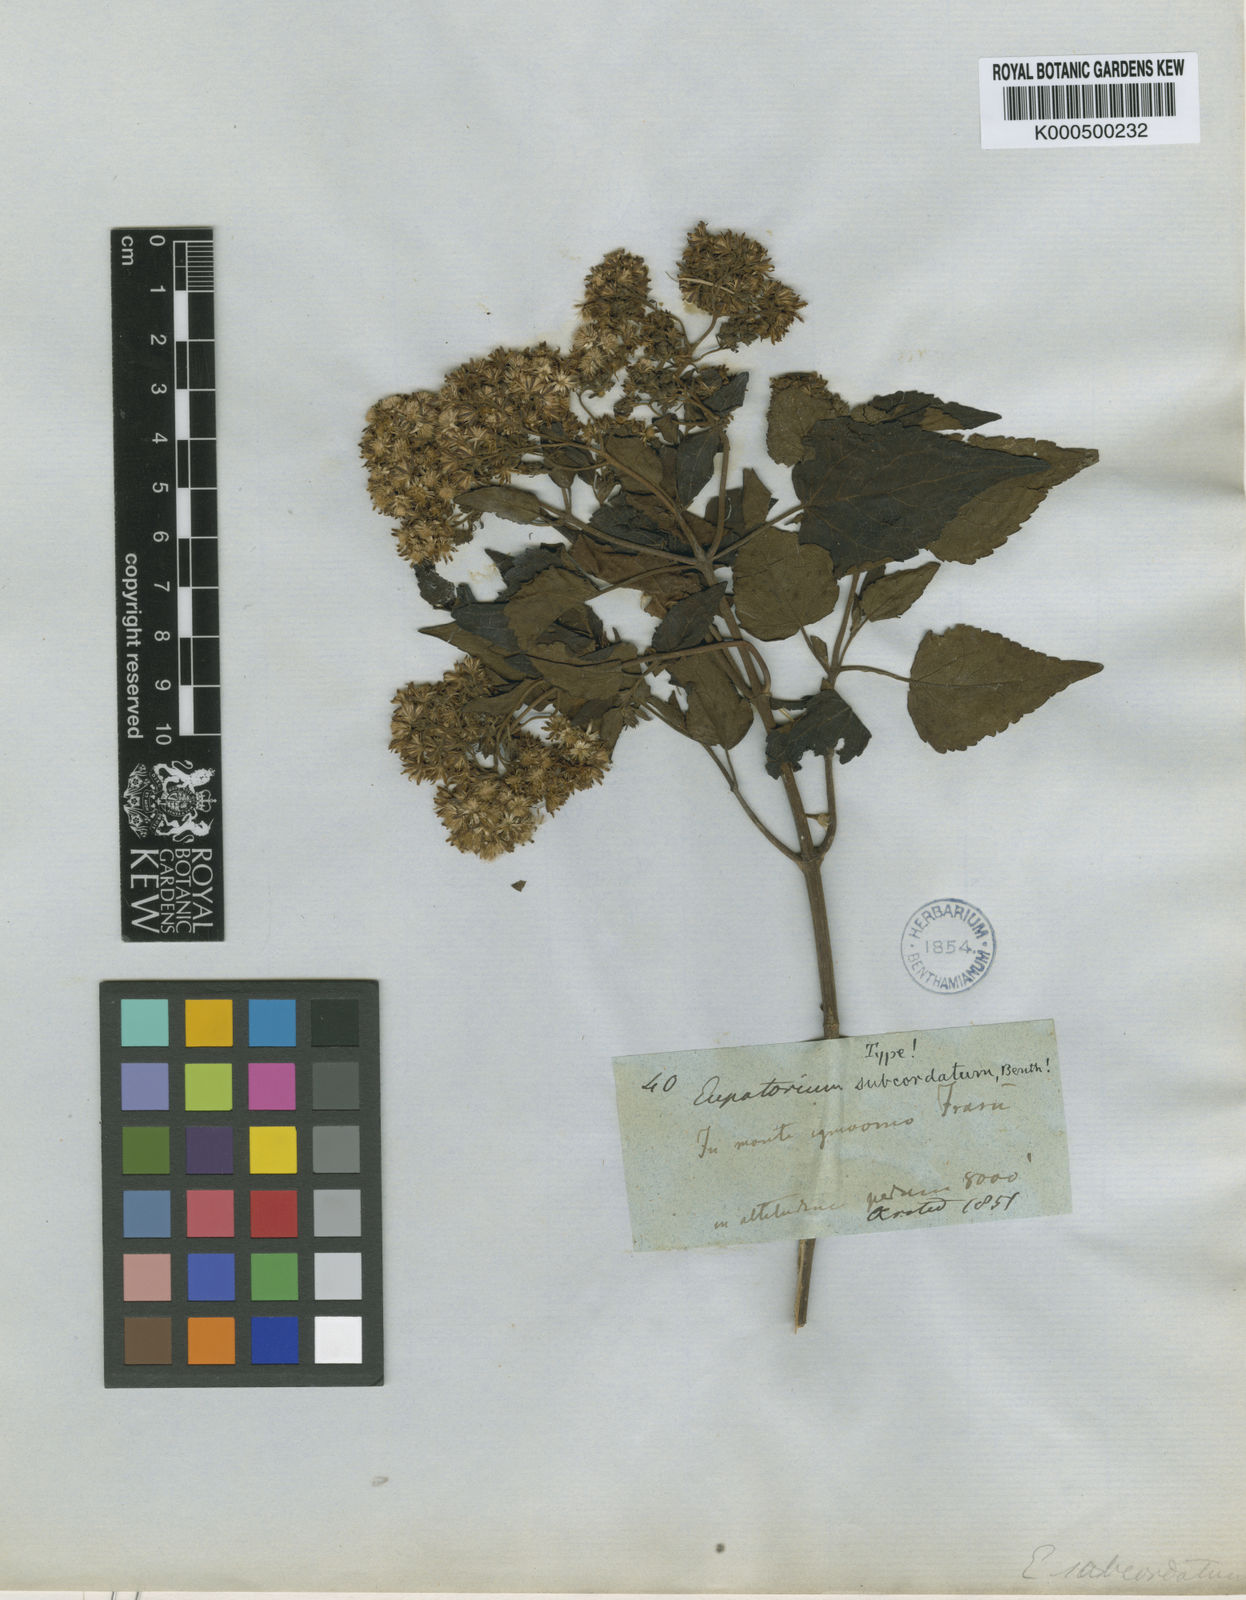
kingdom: Plantae
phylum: Tracheophyta
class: Magnoliopsida
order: Asterales
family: Asteraceae
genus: Ageratina
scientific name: Ageratina bustamenta
